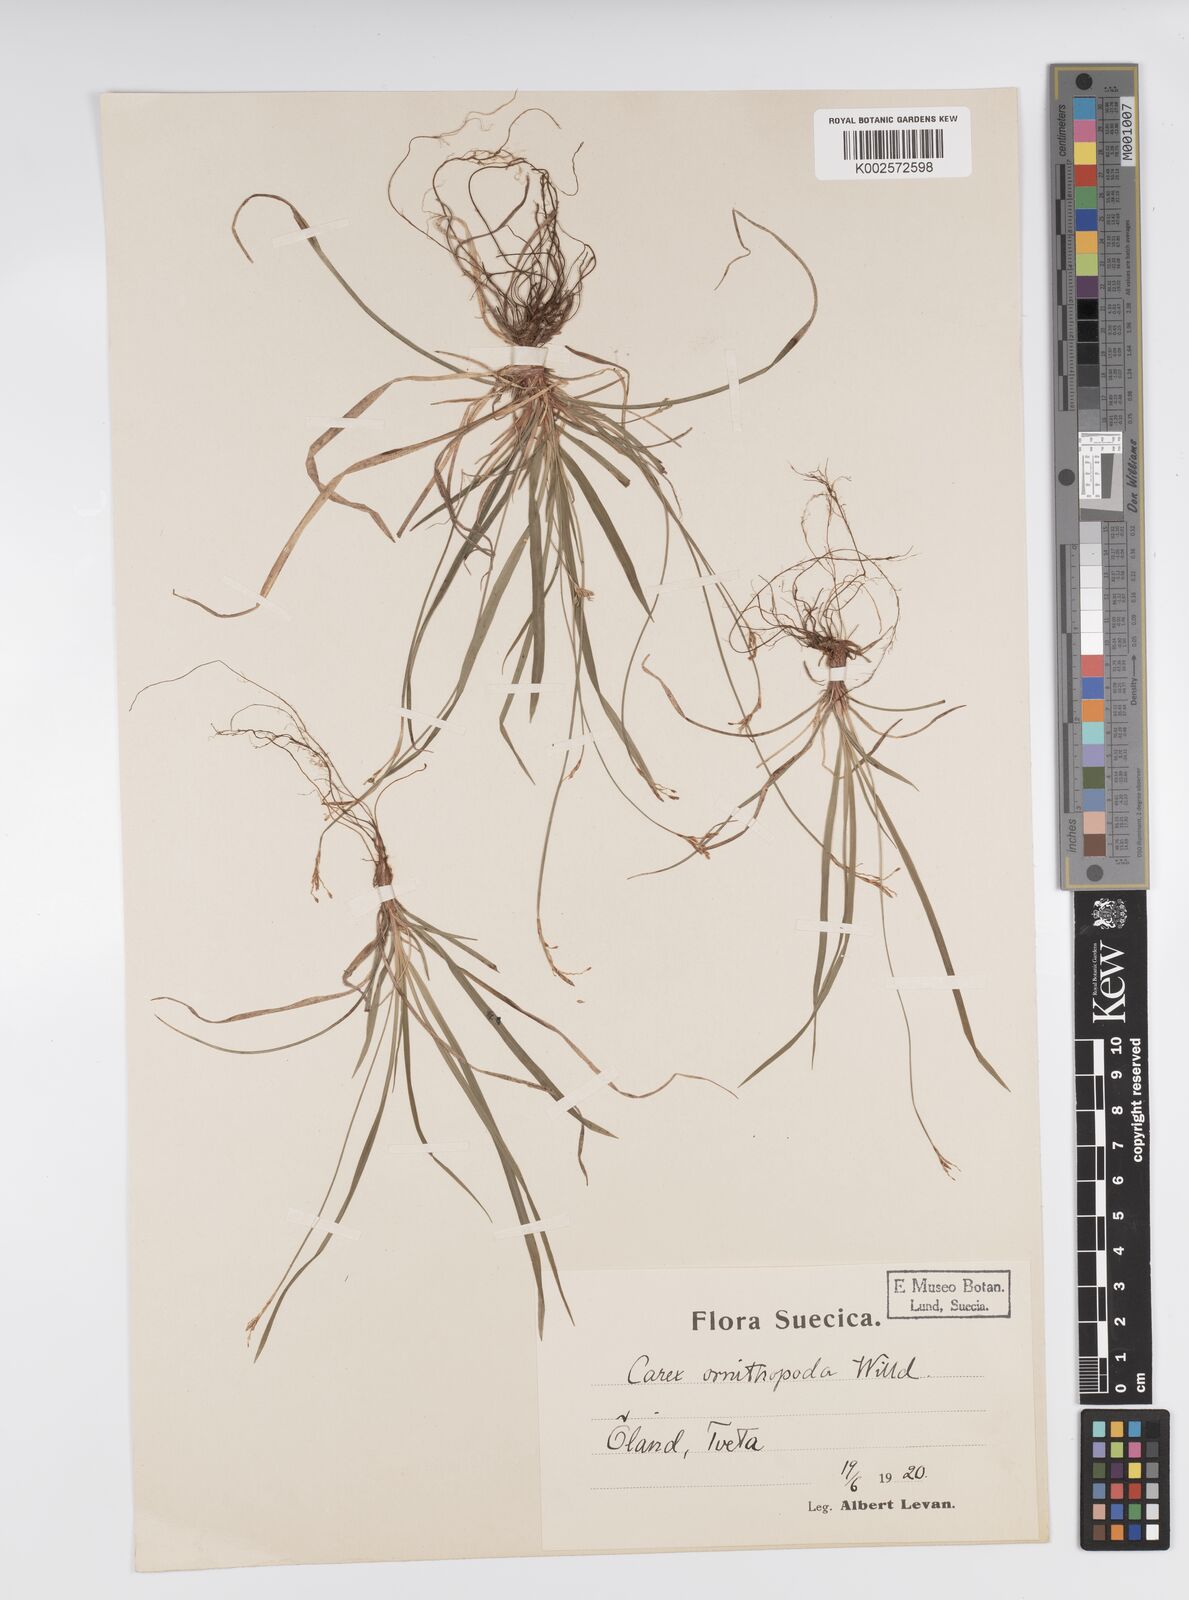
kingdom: Plantae
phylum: Tracheophyta
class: Liliopsida
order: Poales
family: Cyperaceae
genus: Carex
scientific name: Carex ornithopoda
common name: Bird's-foot sedge
